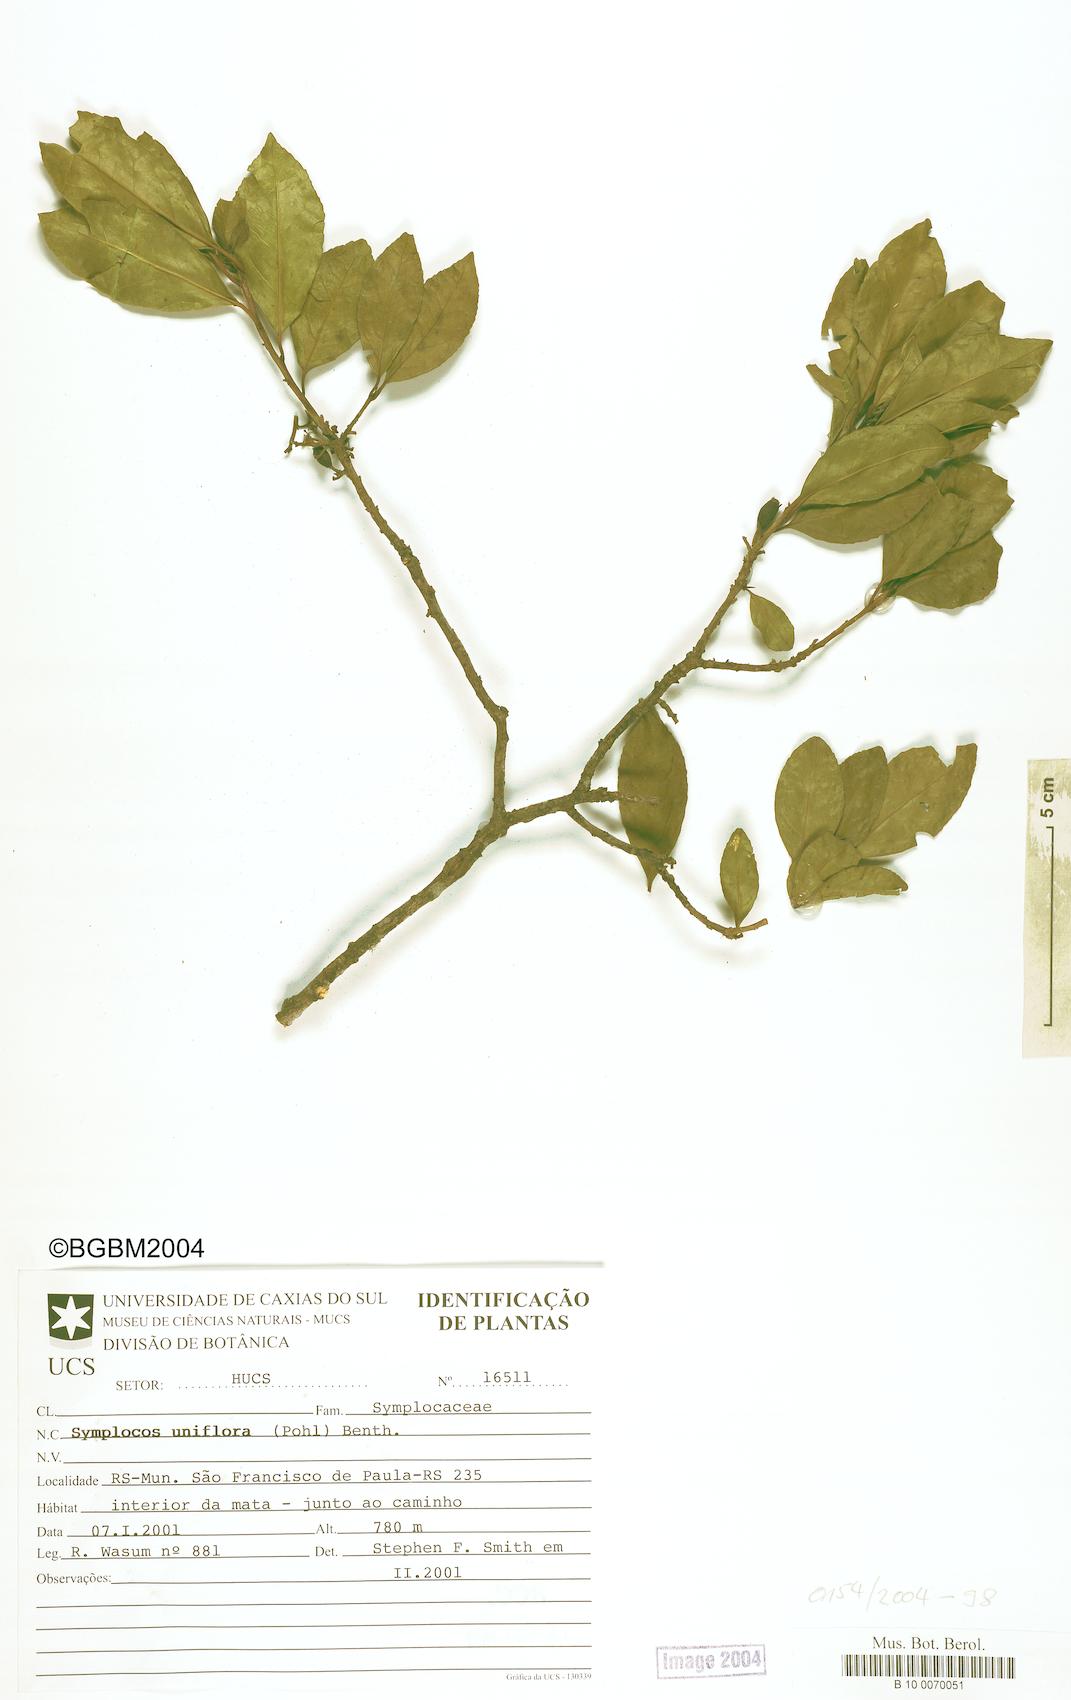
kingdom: Plantae
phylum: Tracheophyta
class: Magnoliopsida
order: Ericales
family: Symplocaceae
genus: Symplocos
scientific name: Symplocos uniflora
